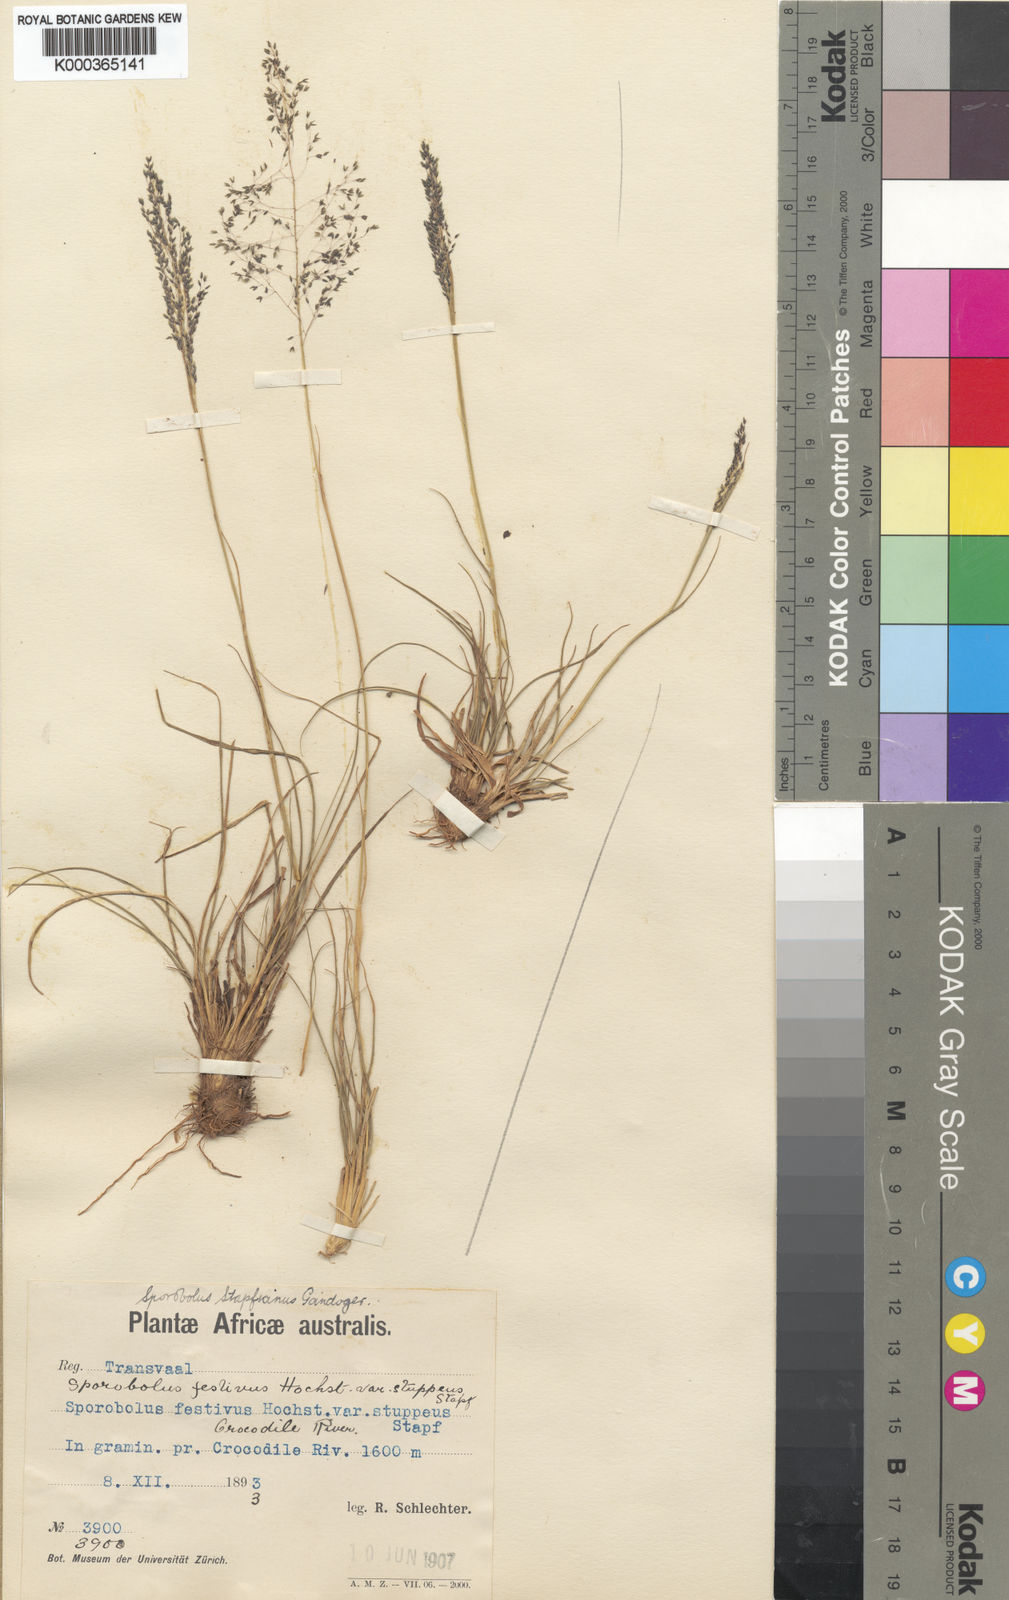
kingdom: Plantae
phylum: Tracheophyta
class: Liliopsida
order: Poales
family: Poaceae
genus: Sporobolus
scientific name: Sporobolus stapfianus
